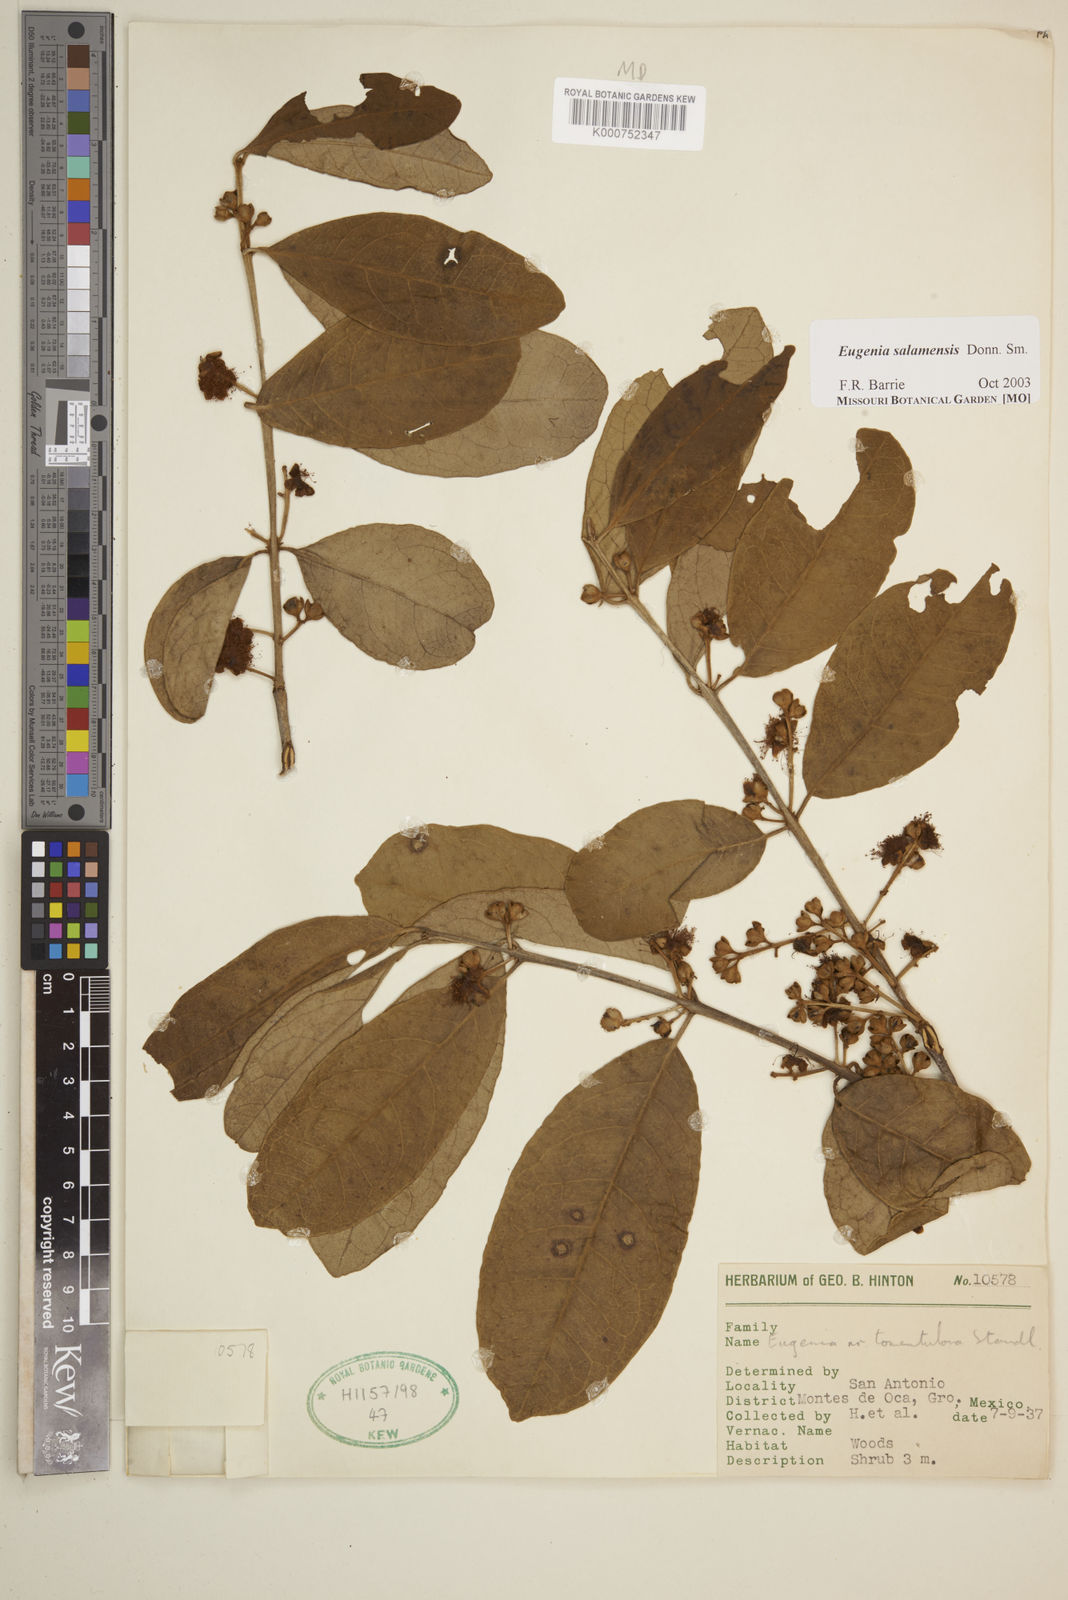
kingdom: Plantae
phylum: Tracheophyta
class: Magnoliopsida
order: Myrtales
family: Myrtaceae
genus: Eugenia
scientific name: Eugenia salamensis
